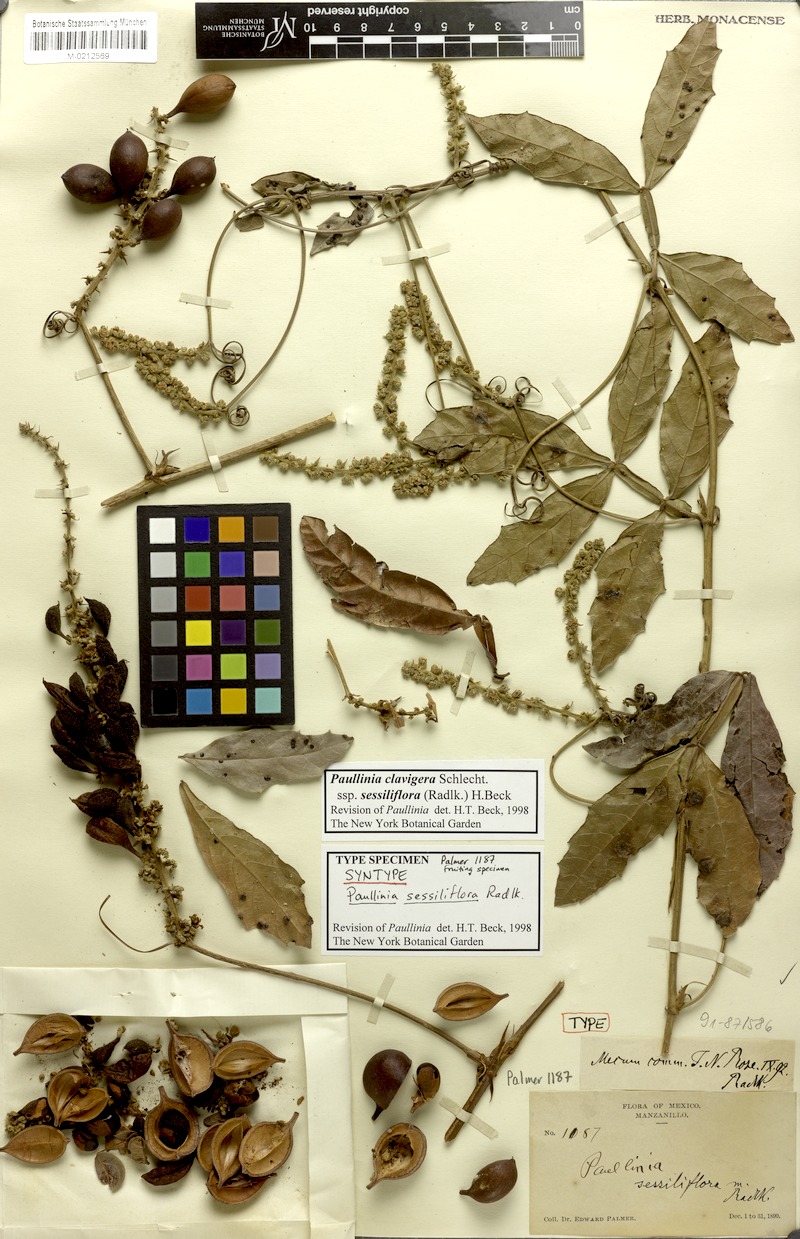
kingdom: Plantae
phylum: Tracheophyta
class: Magnoliopsida
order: Sapindales
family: Sapindaceae
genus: Paullinia
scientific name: Paullinia clavigera
